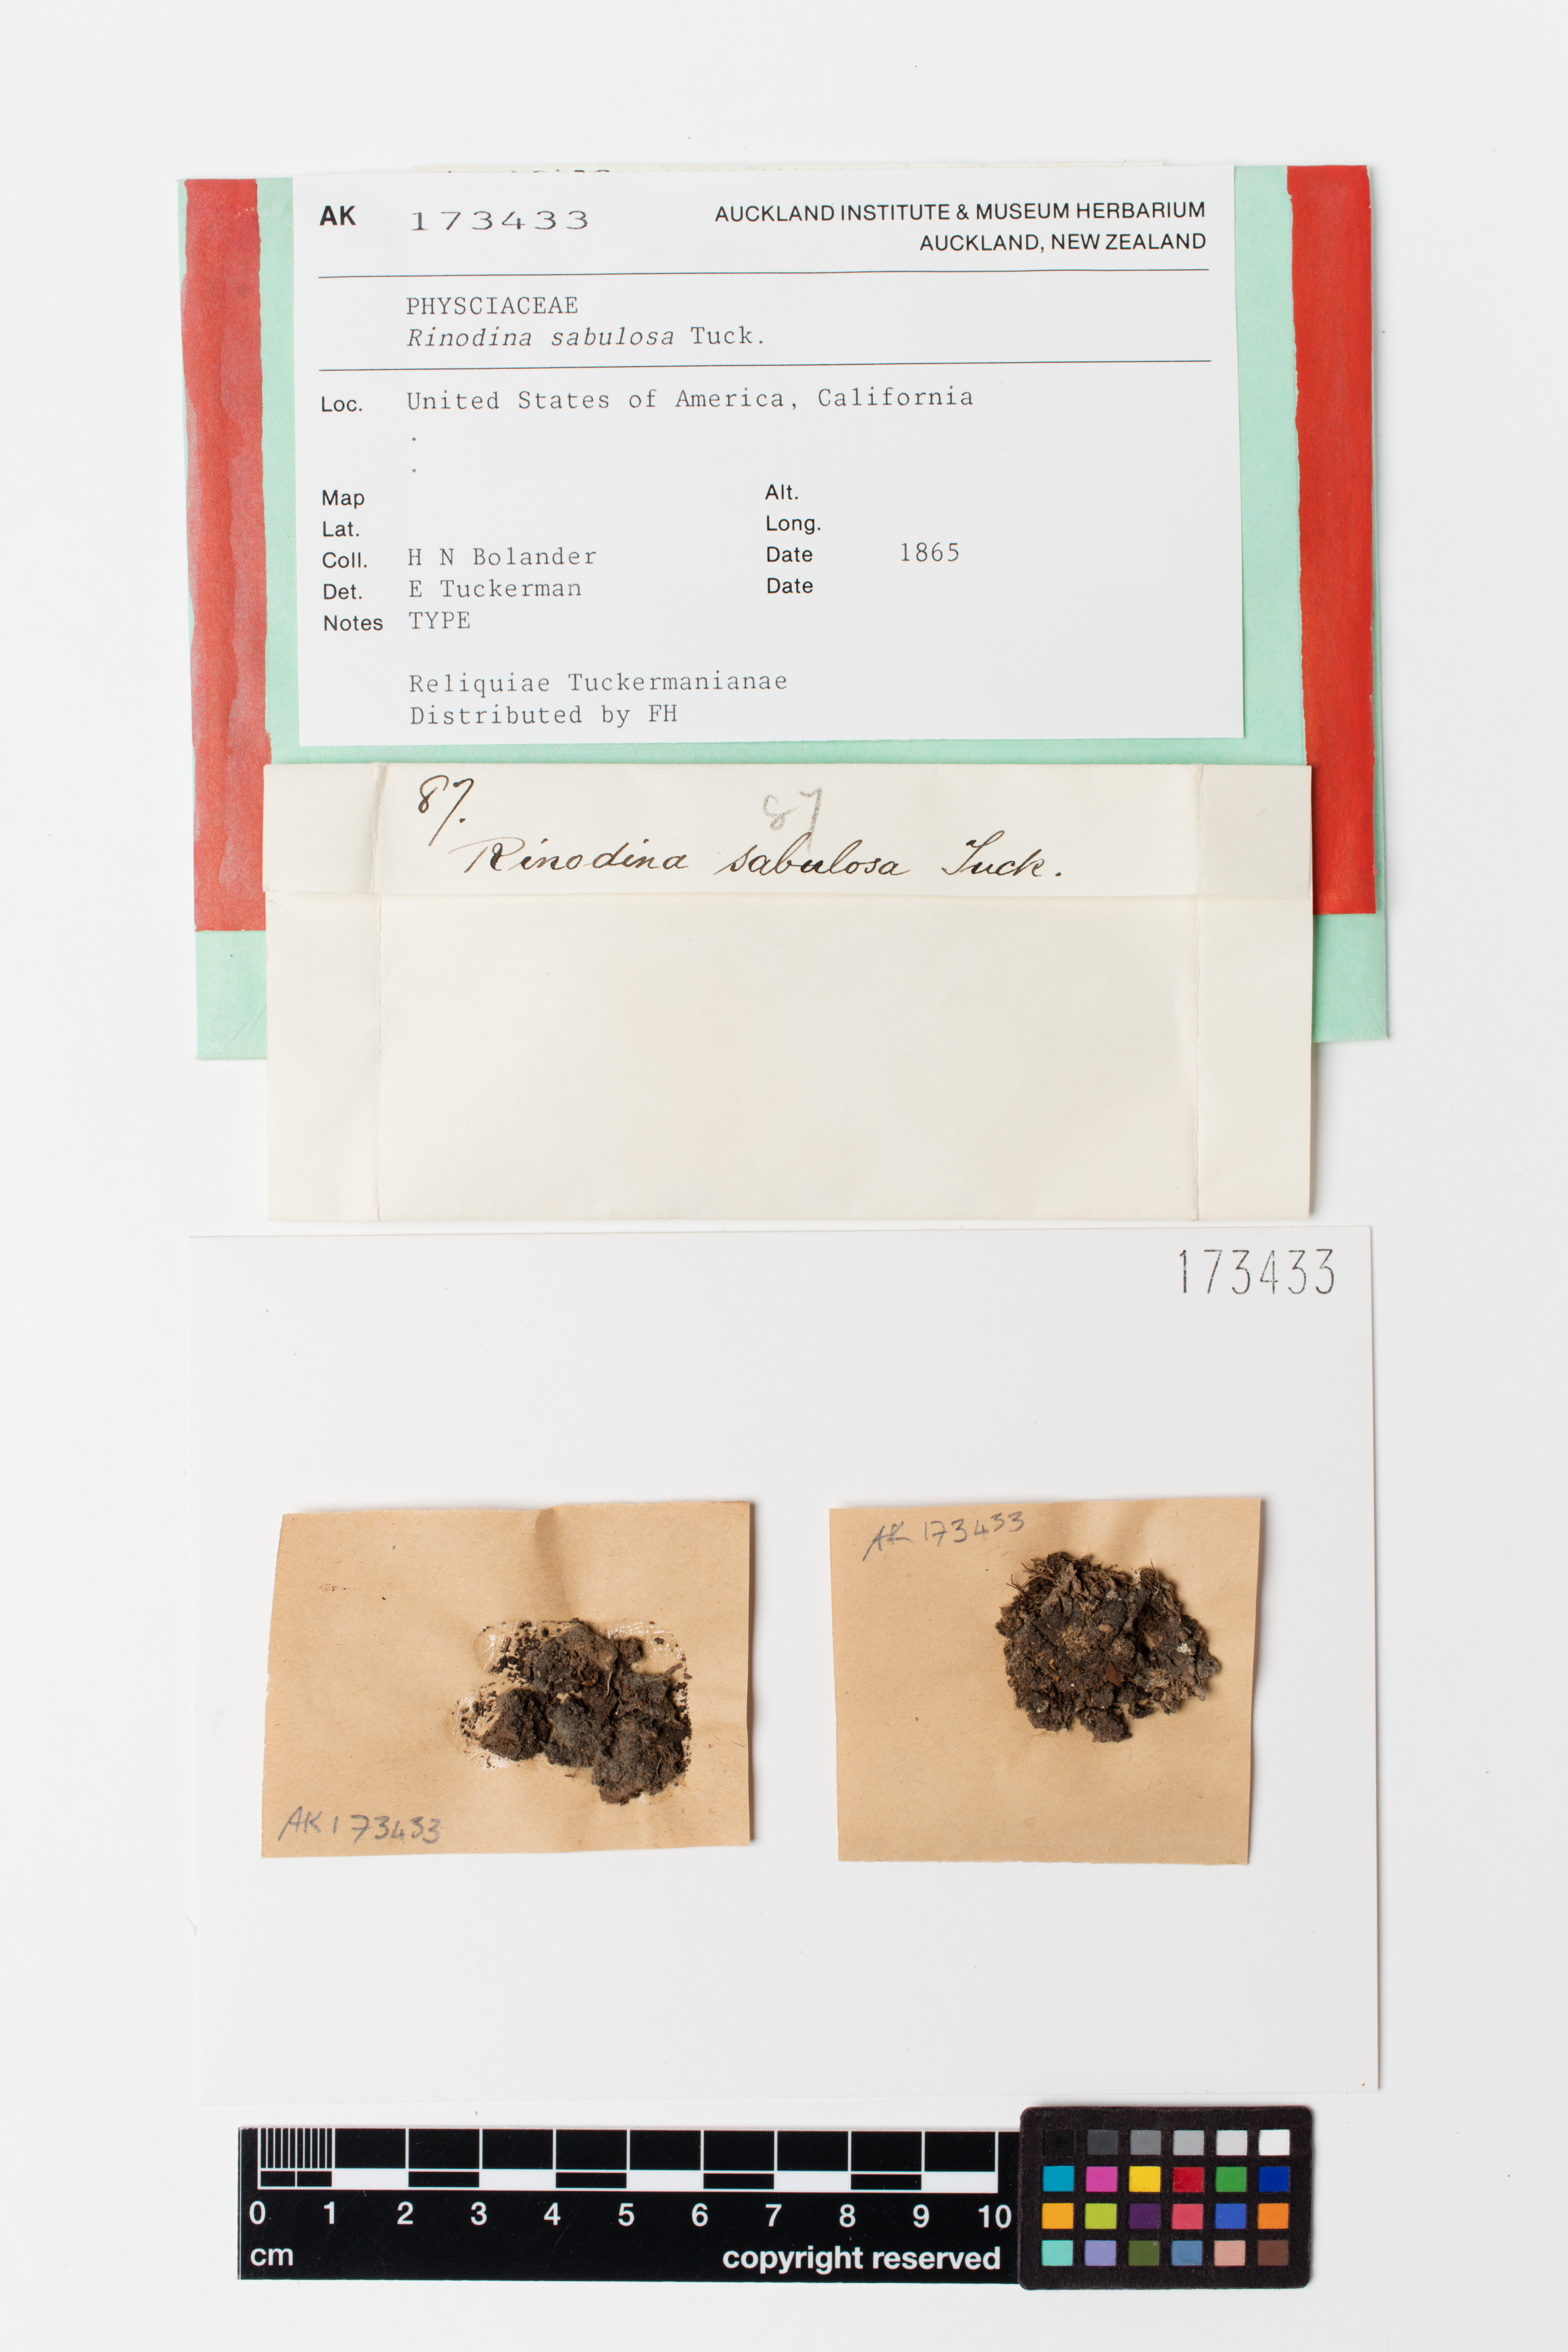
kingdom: Fungi
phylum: Ascomycota
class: Lecanoromycetes
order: Caliciales
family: Physciaceae
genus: Rinodina
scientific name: Rinodina conradii
